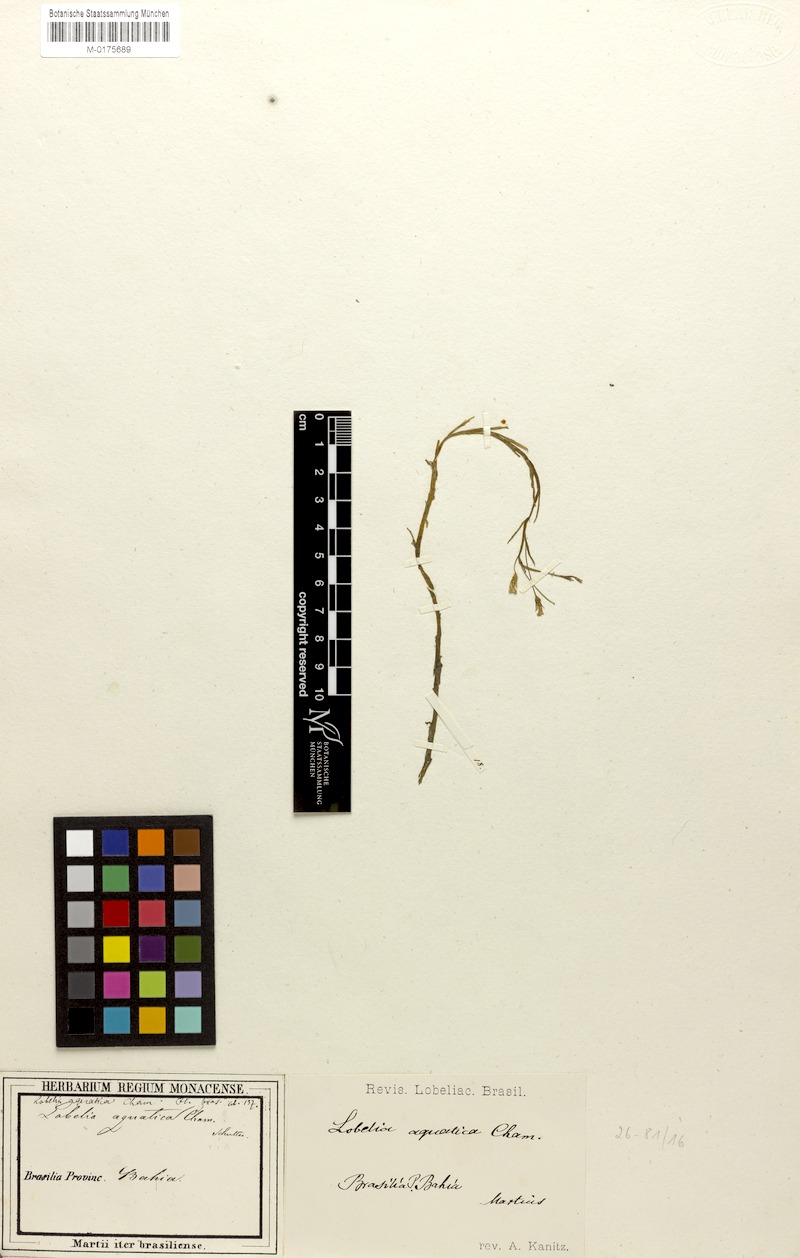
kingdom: Plantae
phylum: Tracheophyta
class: Magnoliopsida
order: Asterales
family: Campanulaceae
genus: Lobelia
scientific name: Lobelia aquatica
